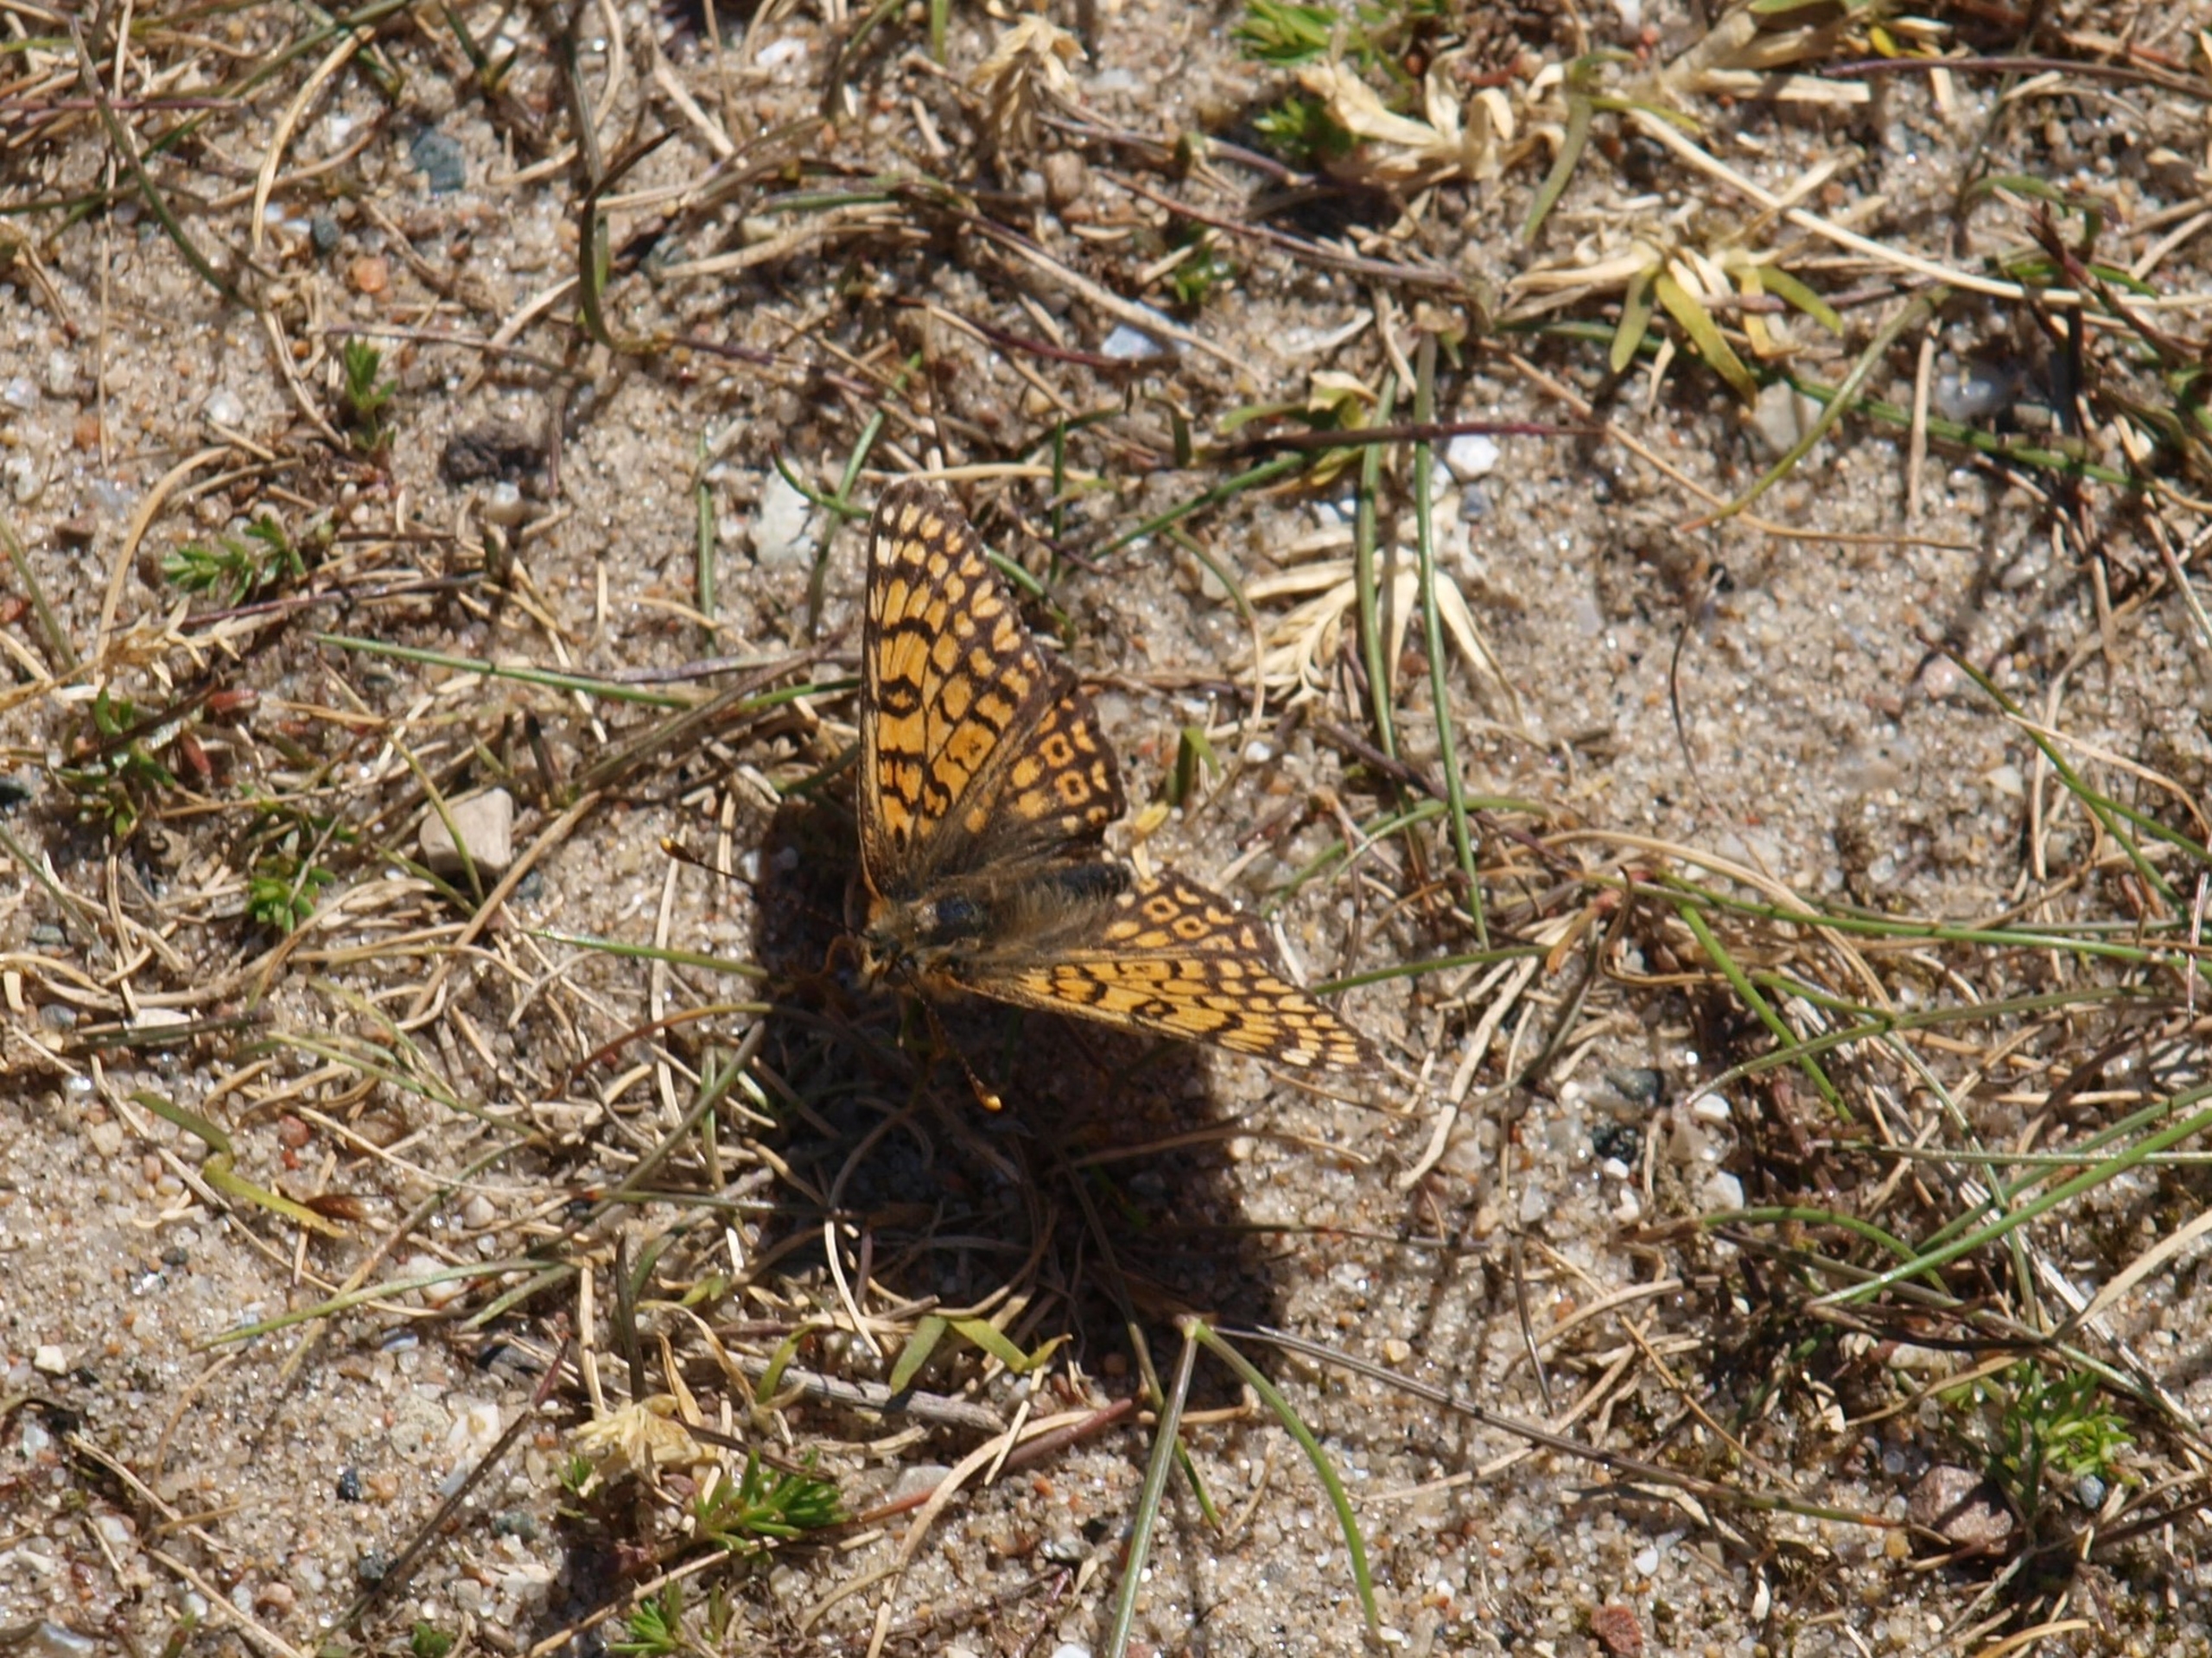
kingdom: Animalia
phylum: Arthropoda
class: Insecta
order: Lepidoptera
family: Nymphalidae
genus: Melitaea
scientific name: Melitaea cinxia
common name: Okkergul pletvinge
